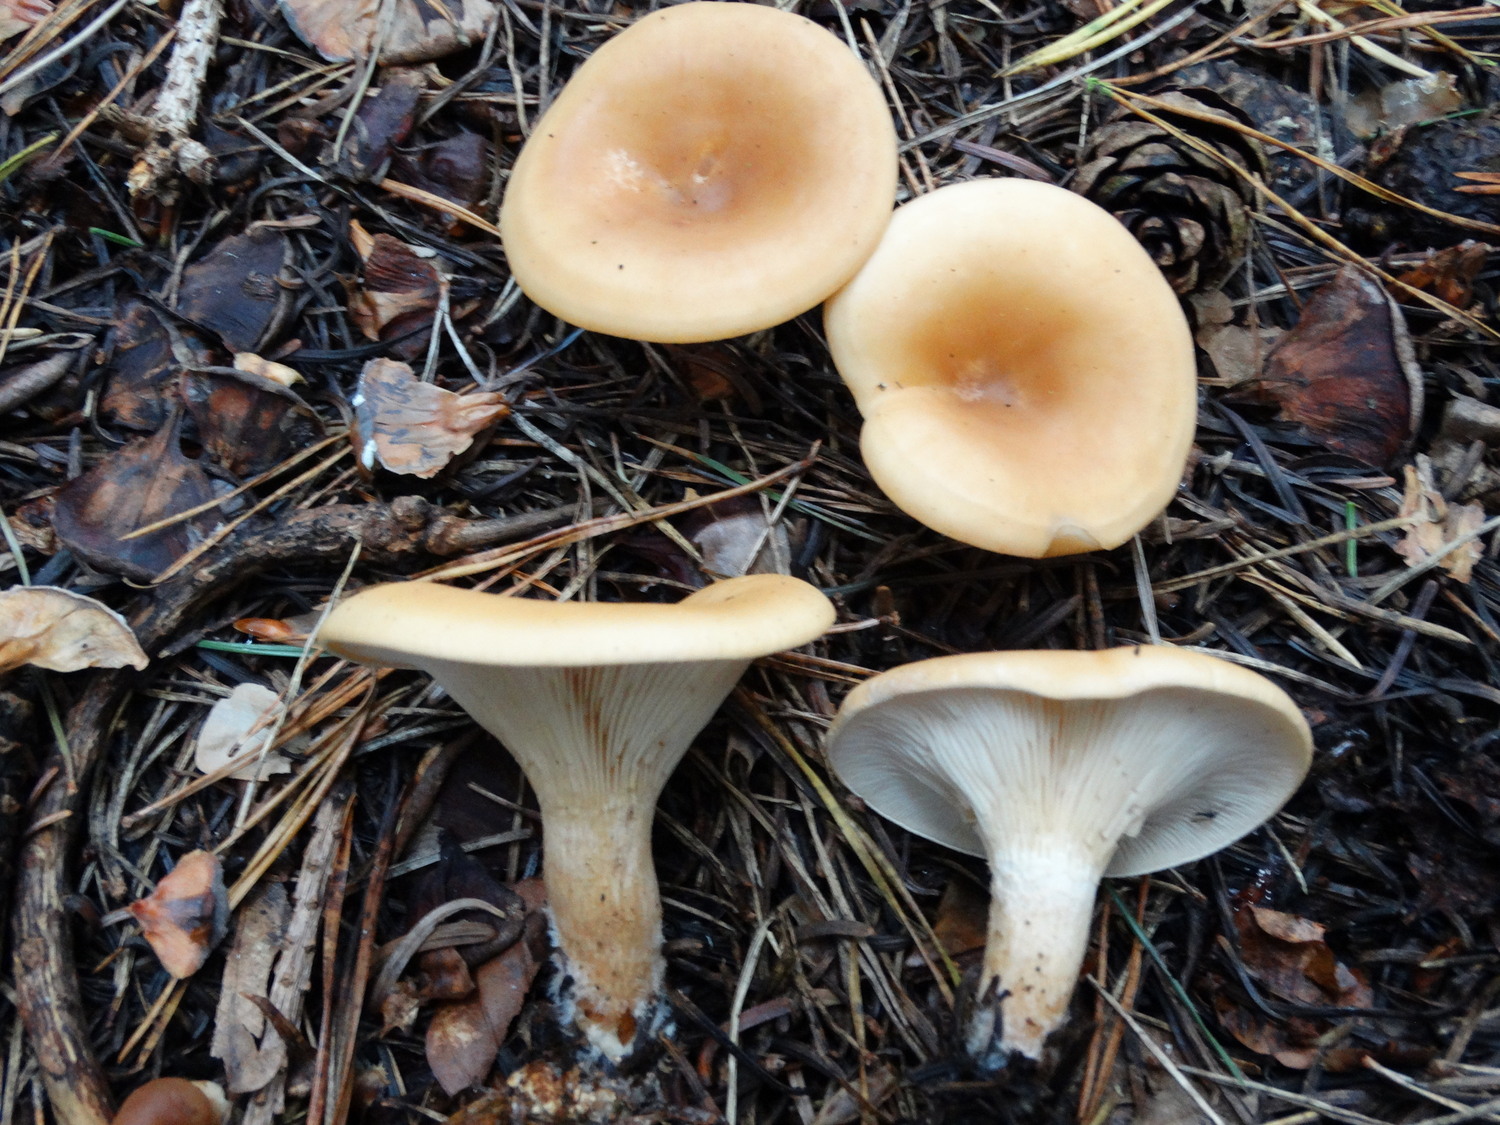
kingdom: Fungi
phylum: Basidiomycota
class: Agaricomycetes
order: Agaricales
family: Tricholomataceae
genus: Paralepista
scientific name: Paralepista flaccida
